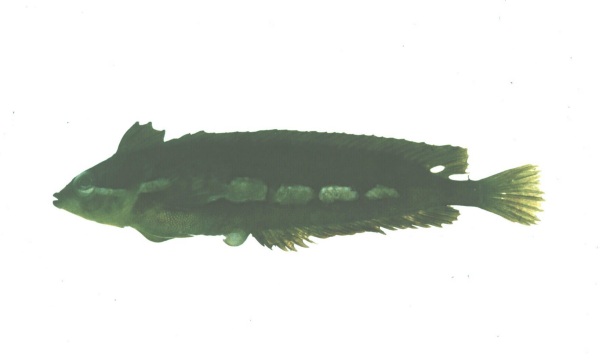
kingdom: Animalia
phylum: Chordata
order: Perciformes
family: Clinidae
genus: Pavoclinus
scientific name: Pavoclinus laurentii
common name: Rippled klipfish
